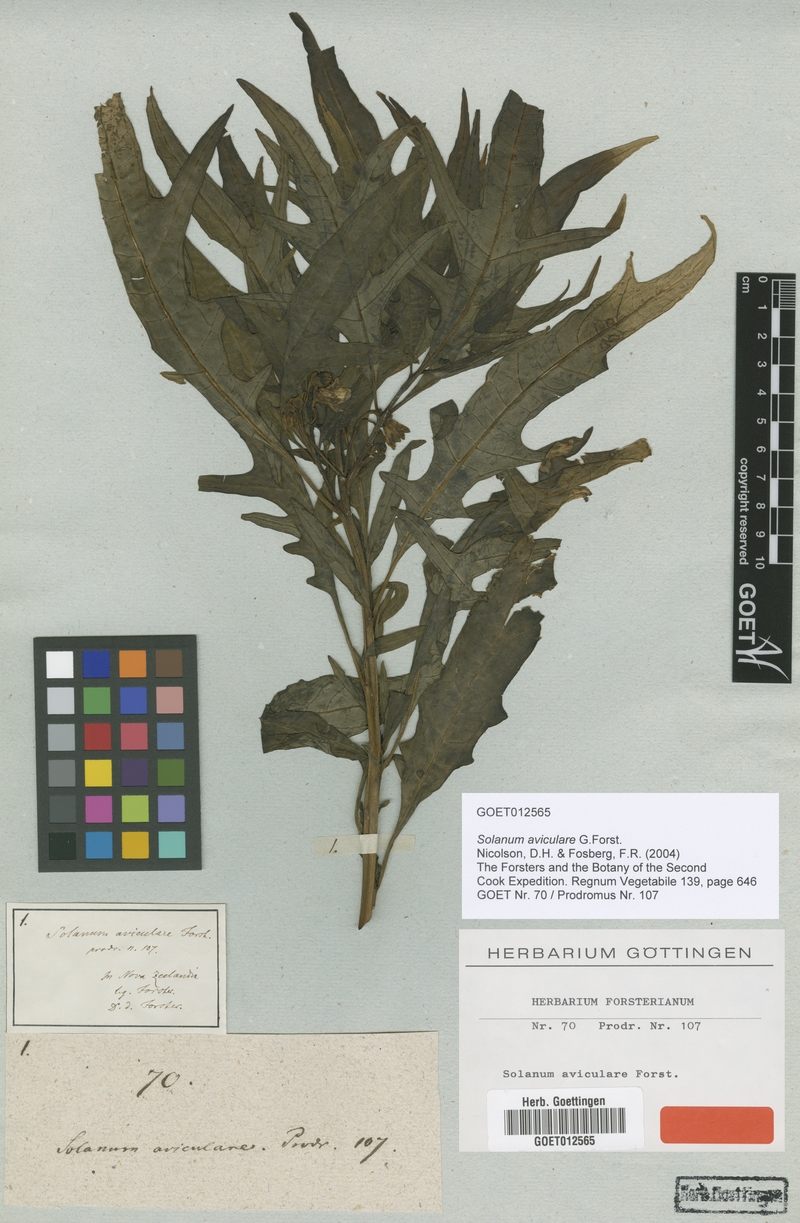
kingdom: Plantae
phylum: Tracheophyta
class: Magnoliopsida
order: Solanales
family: Solanaceae
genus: Solanum
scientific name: Solanum aviculare
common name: New zealand nightshade
